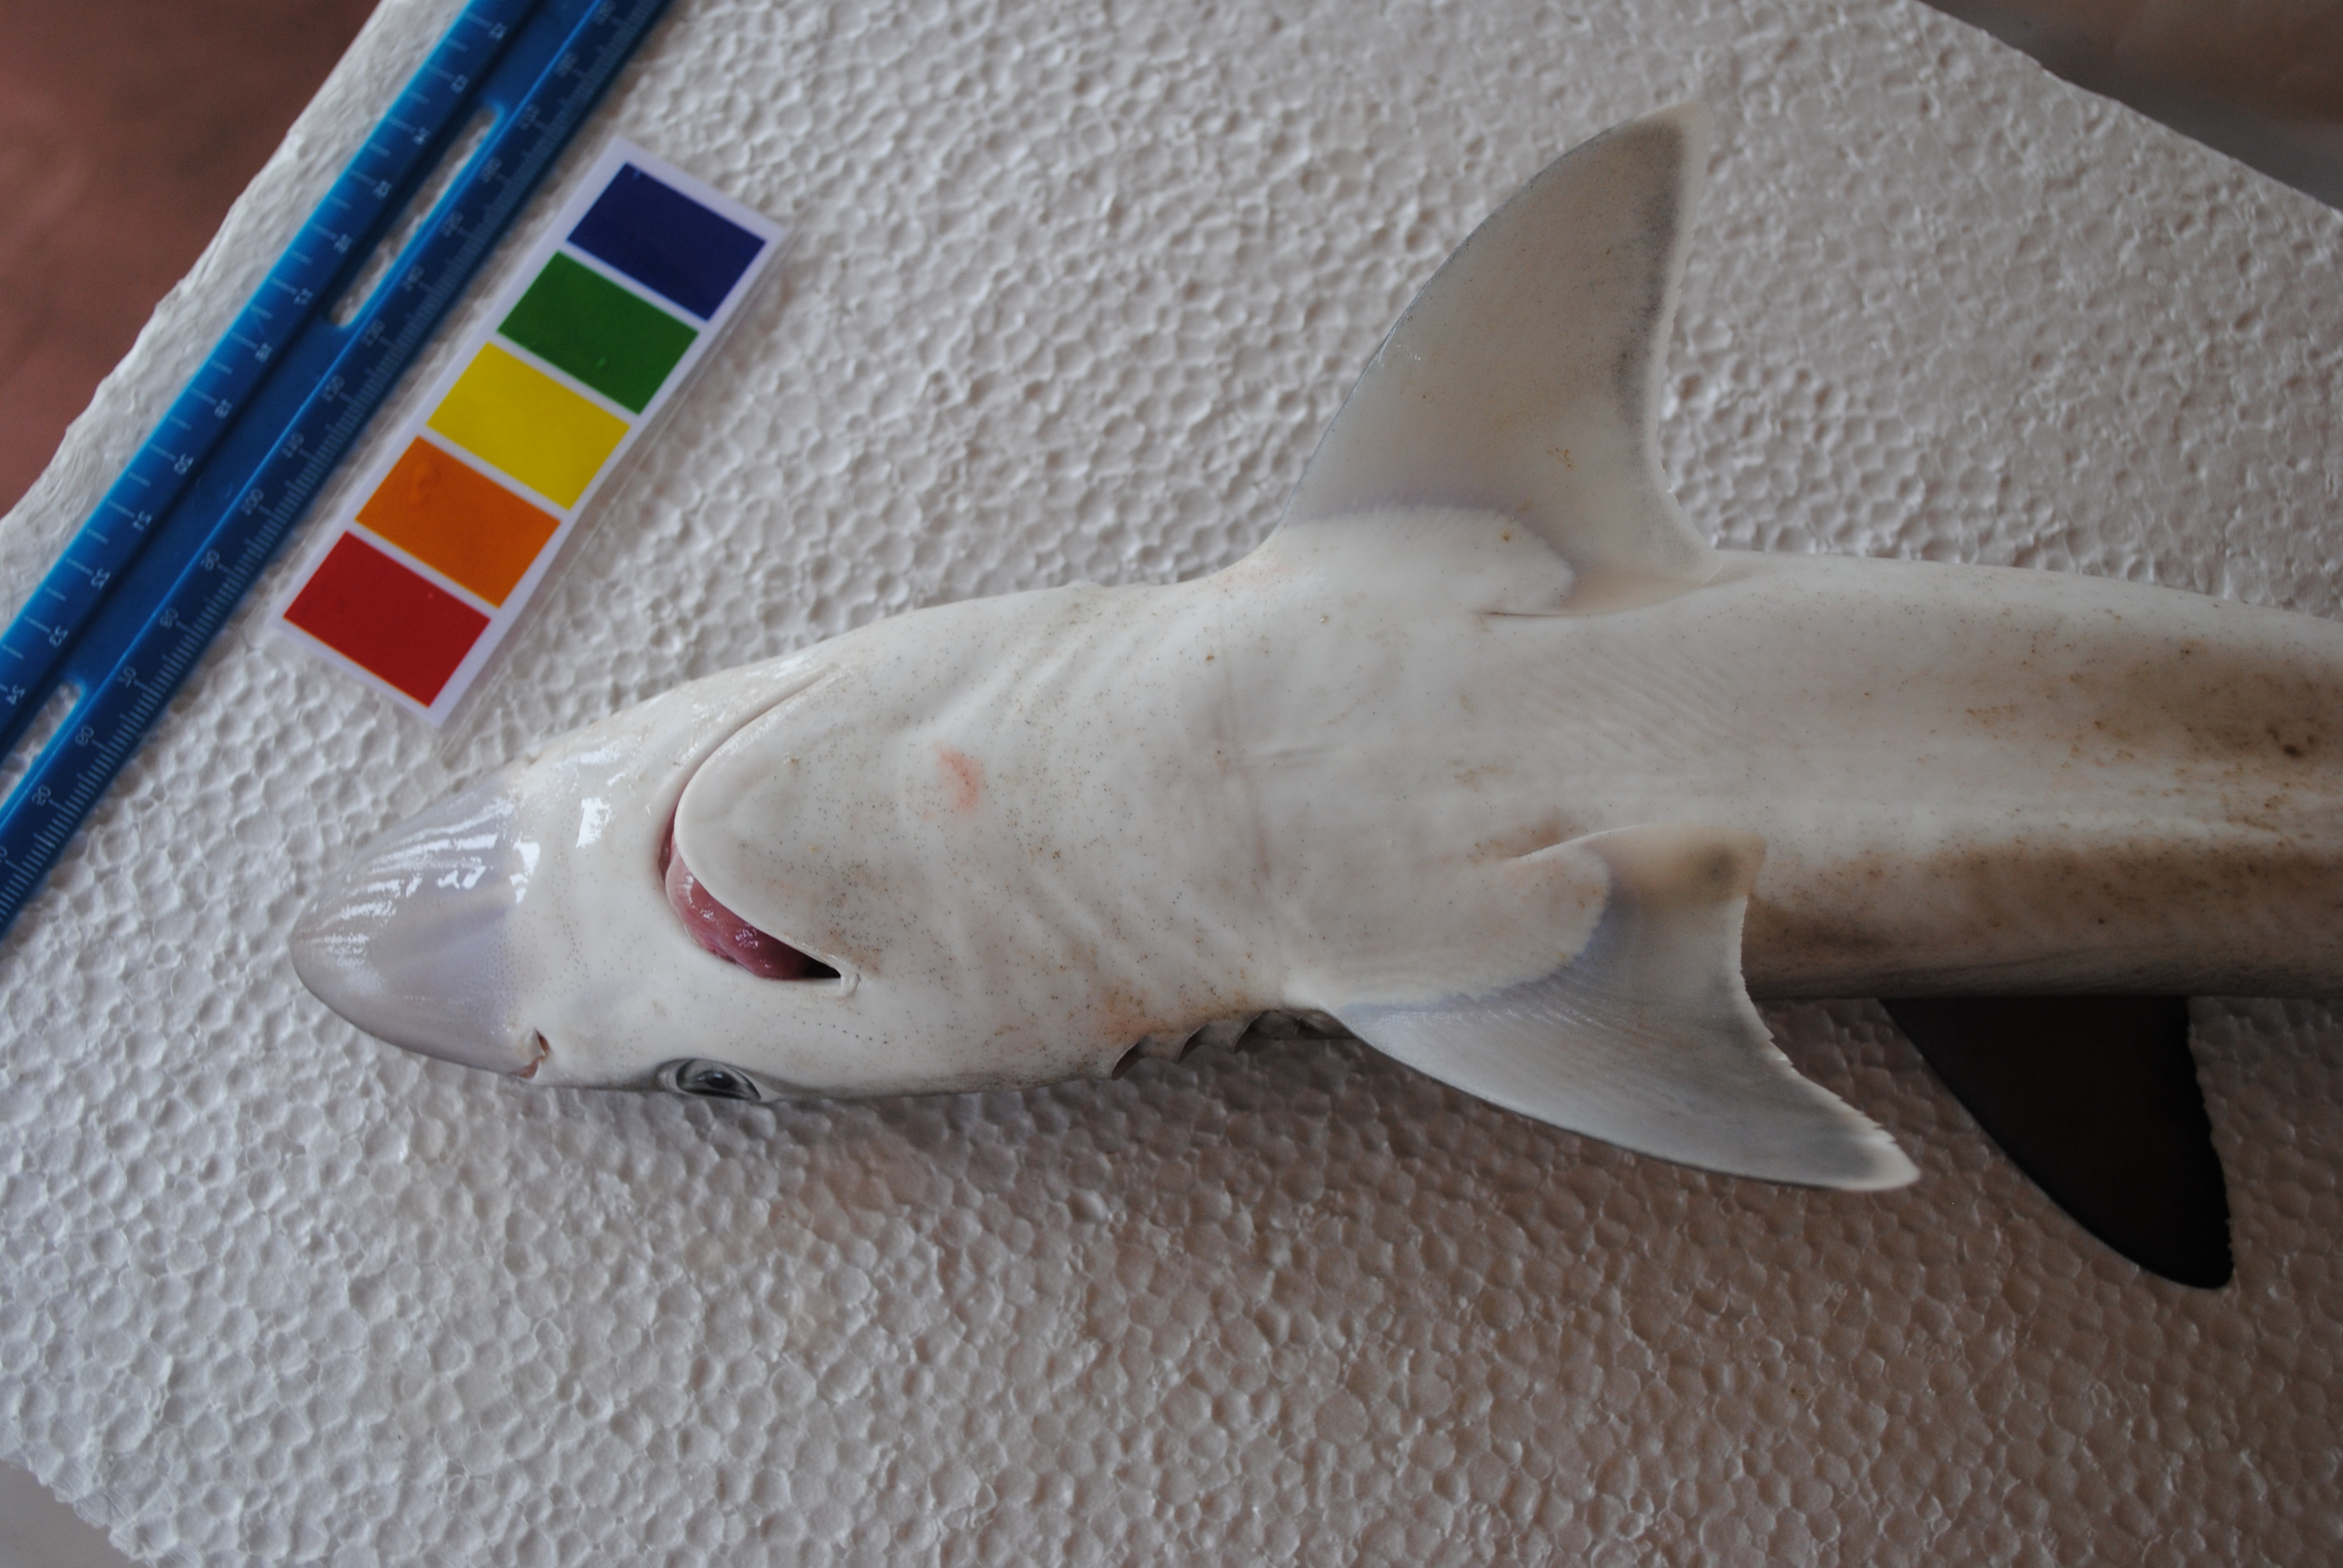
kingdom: Animalia
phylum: Chordata
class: Elasmobranchii
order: Carcharhiniformes
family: Carcharhinidae
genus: Loxodon
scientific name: Loxodon macrorhinus
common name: Sliteye shark
